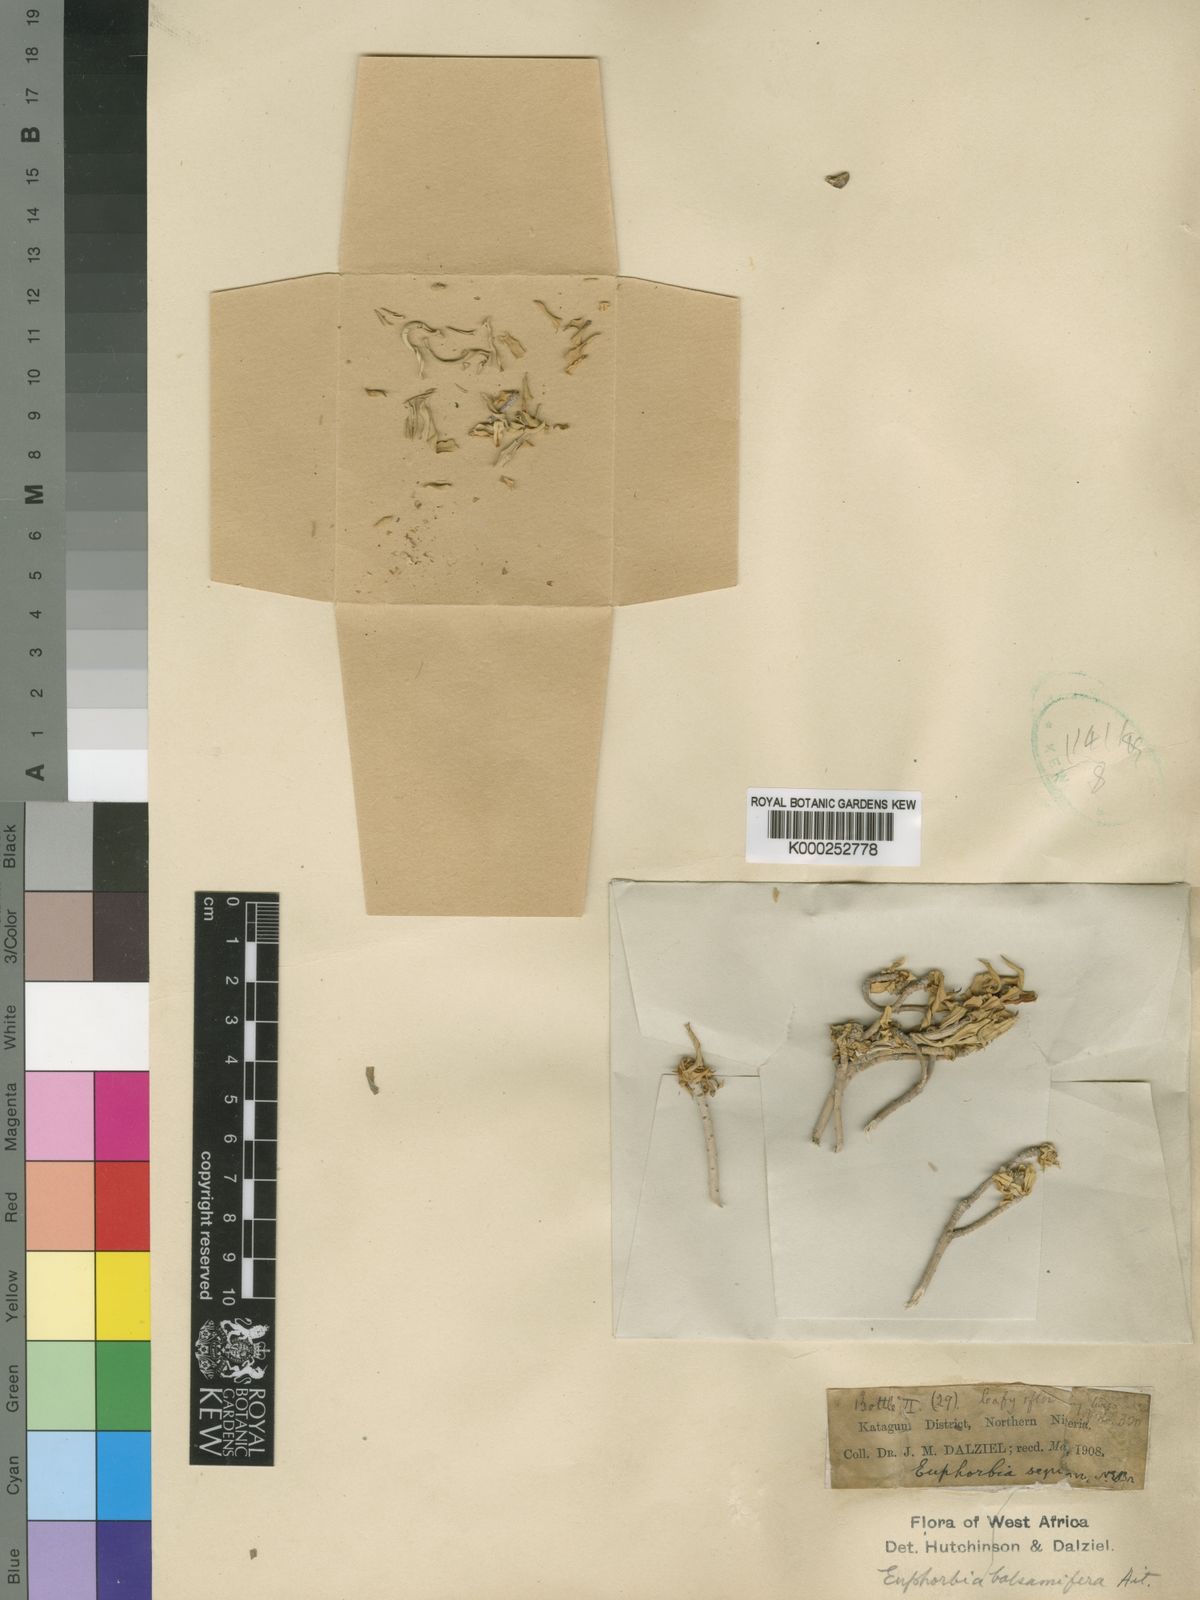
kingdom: Plantae
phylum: Tracheophyta
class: Magnoliopsida
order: Malpighiales
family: Euphorbiaceae
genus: Euphorbia
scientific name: Euphorbia balsamifera
